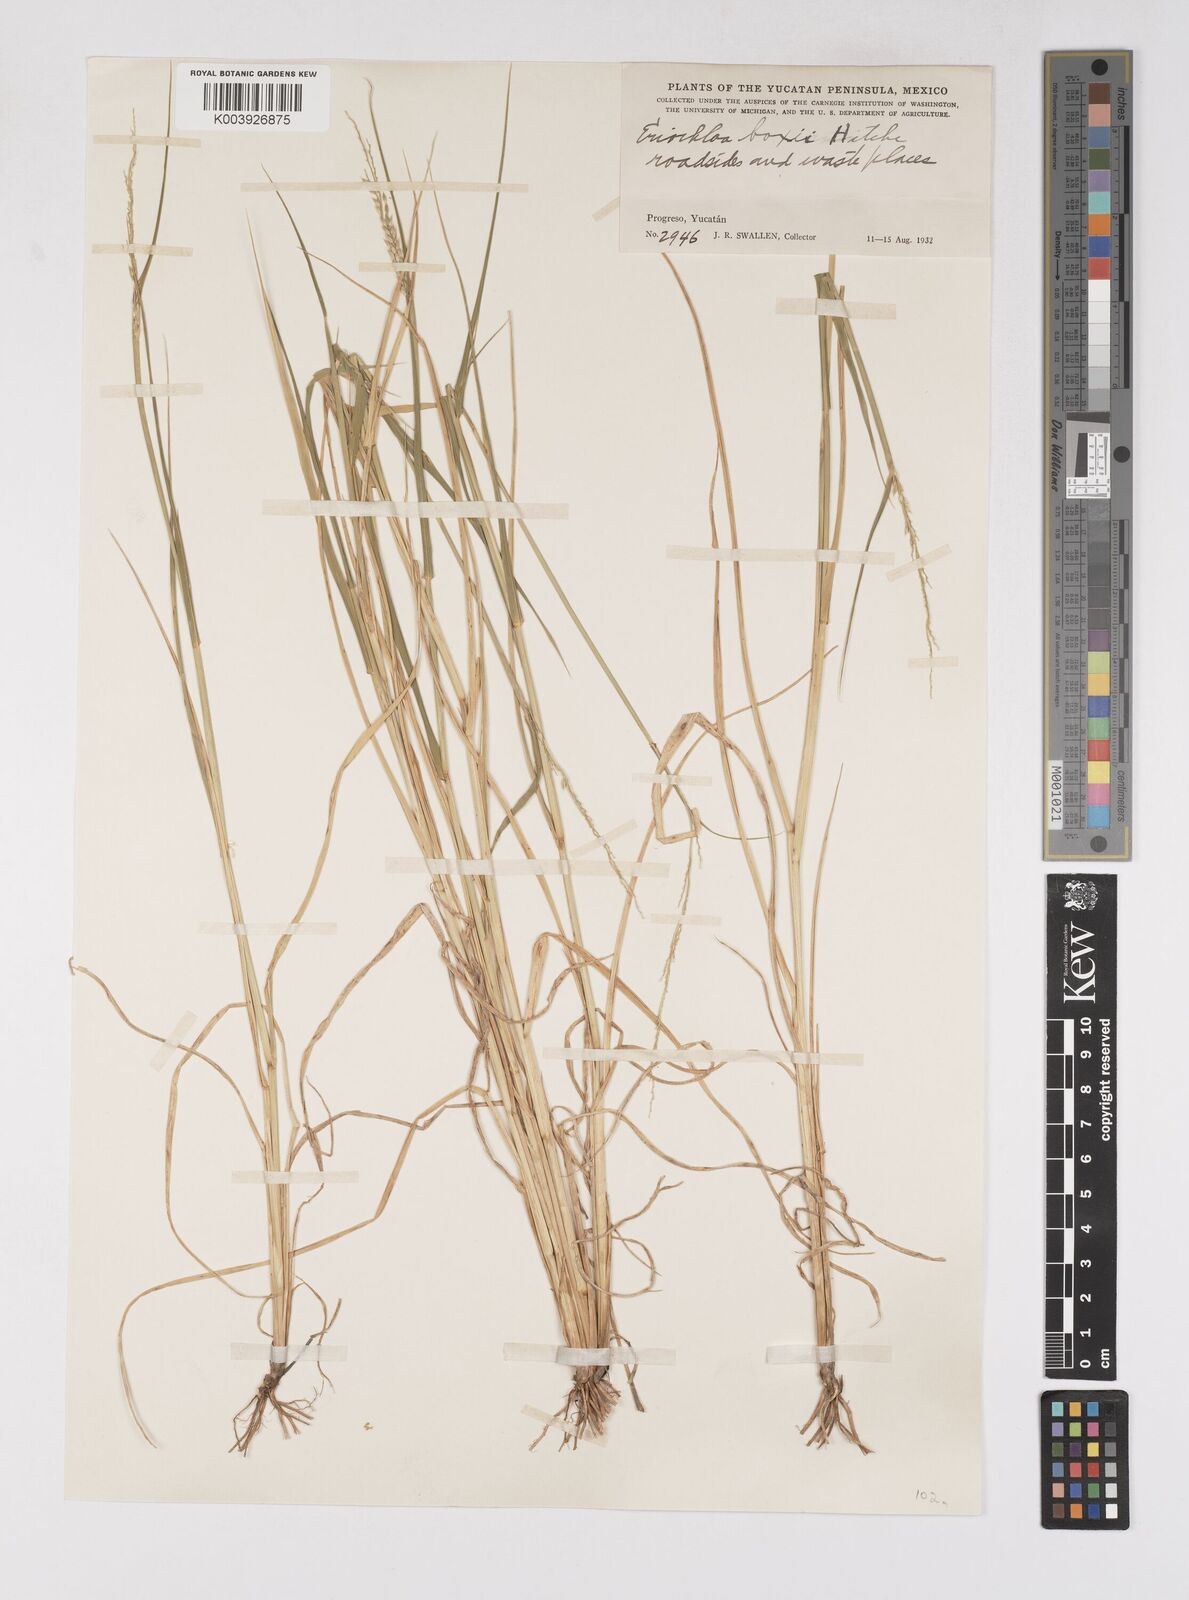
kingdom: Plantae
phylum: Tracheophyta
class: Liliopsida
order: Poales
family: Poaceae
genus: Eriochloa
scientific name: Eriochloa boxiana
